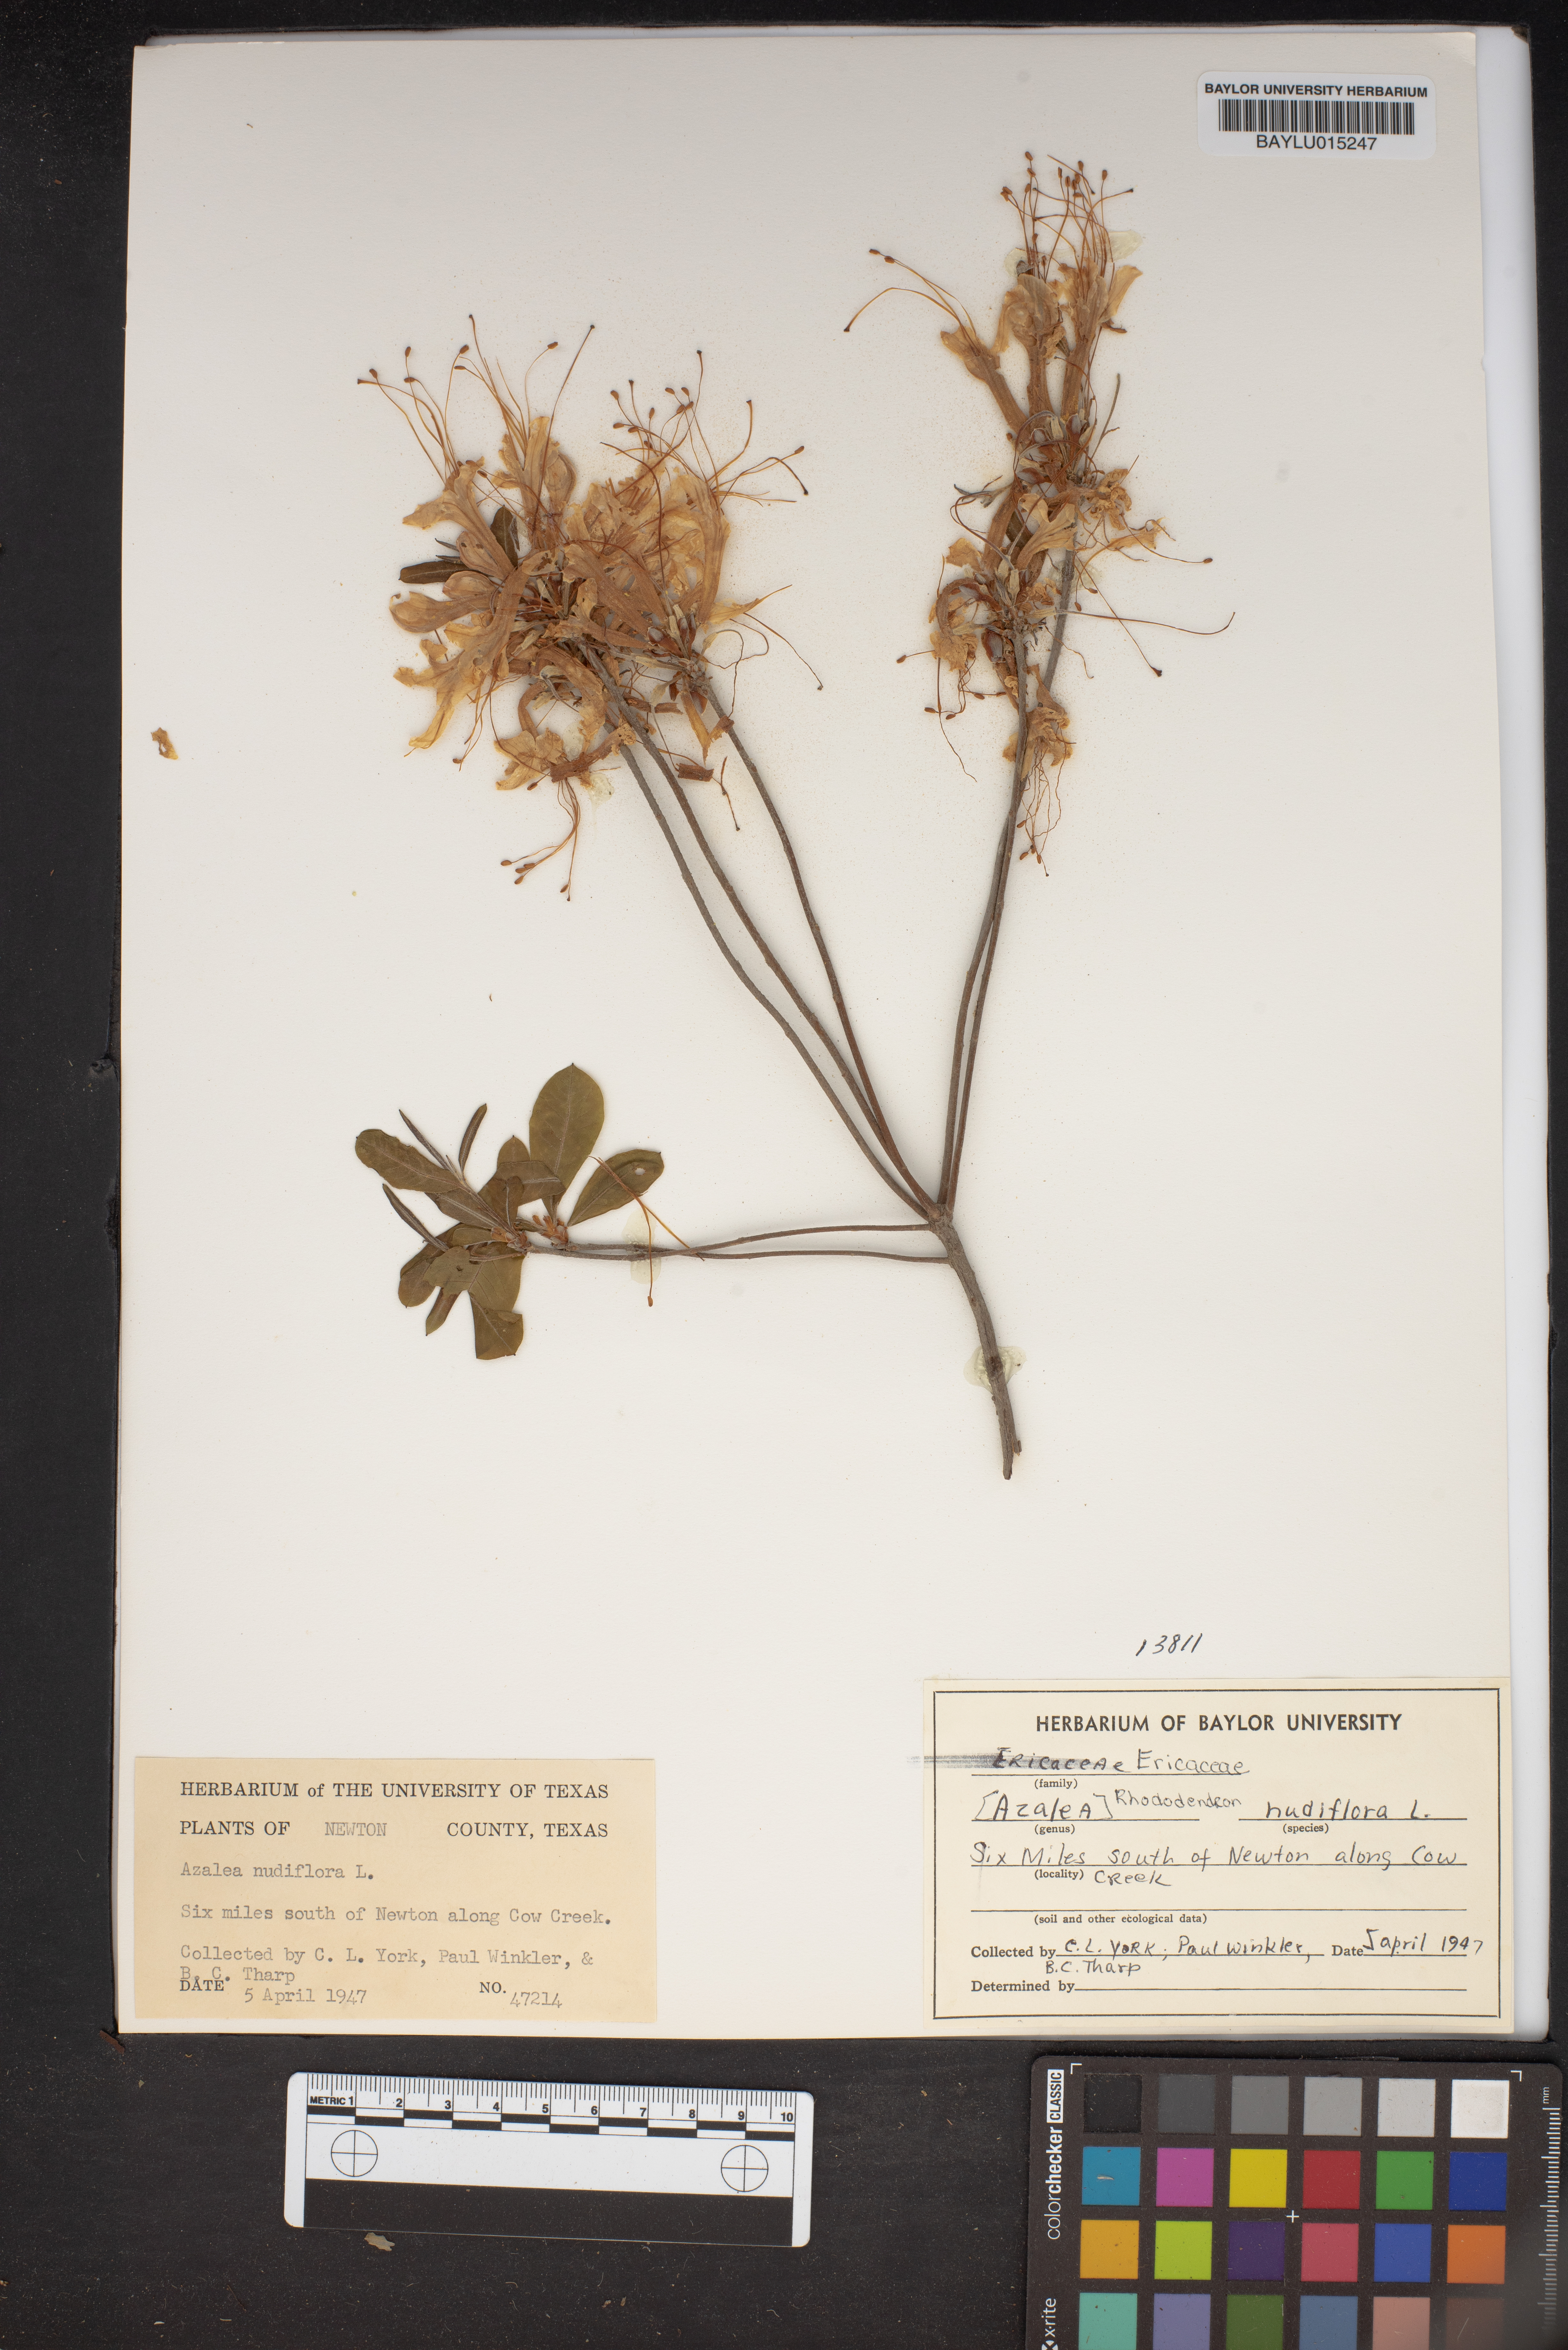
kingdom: Plantae
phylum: Tracheophyta
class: Magnoliopsida
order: Ericales
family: Ericaceae
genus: Rhododendron
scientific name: Rhododendron periclymenoides
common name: Election-pink
